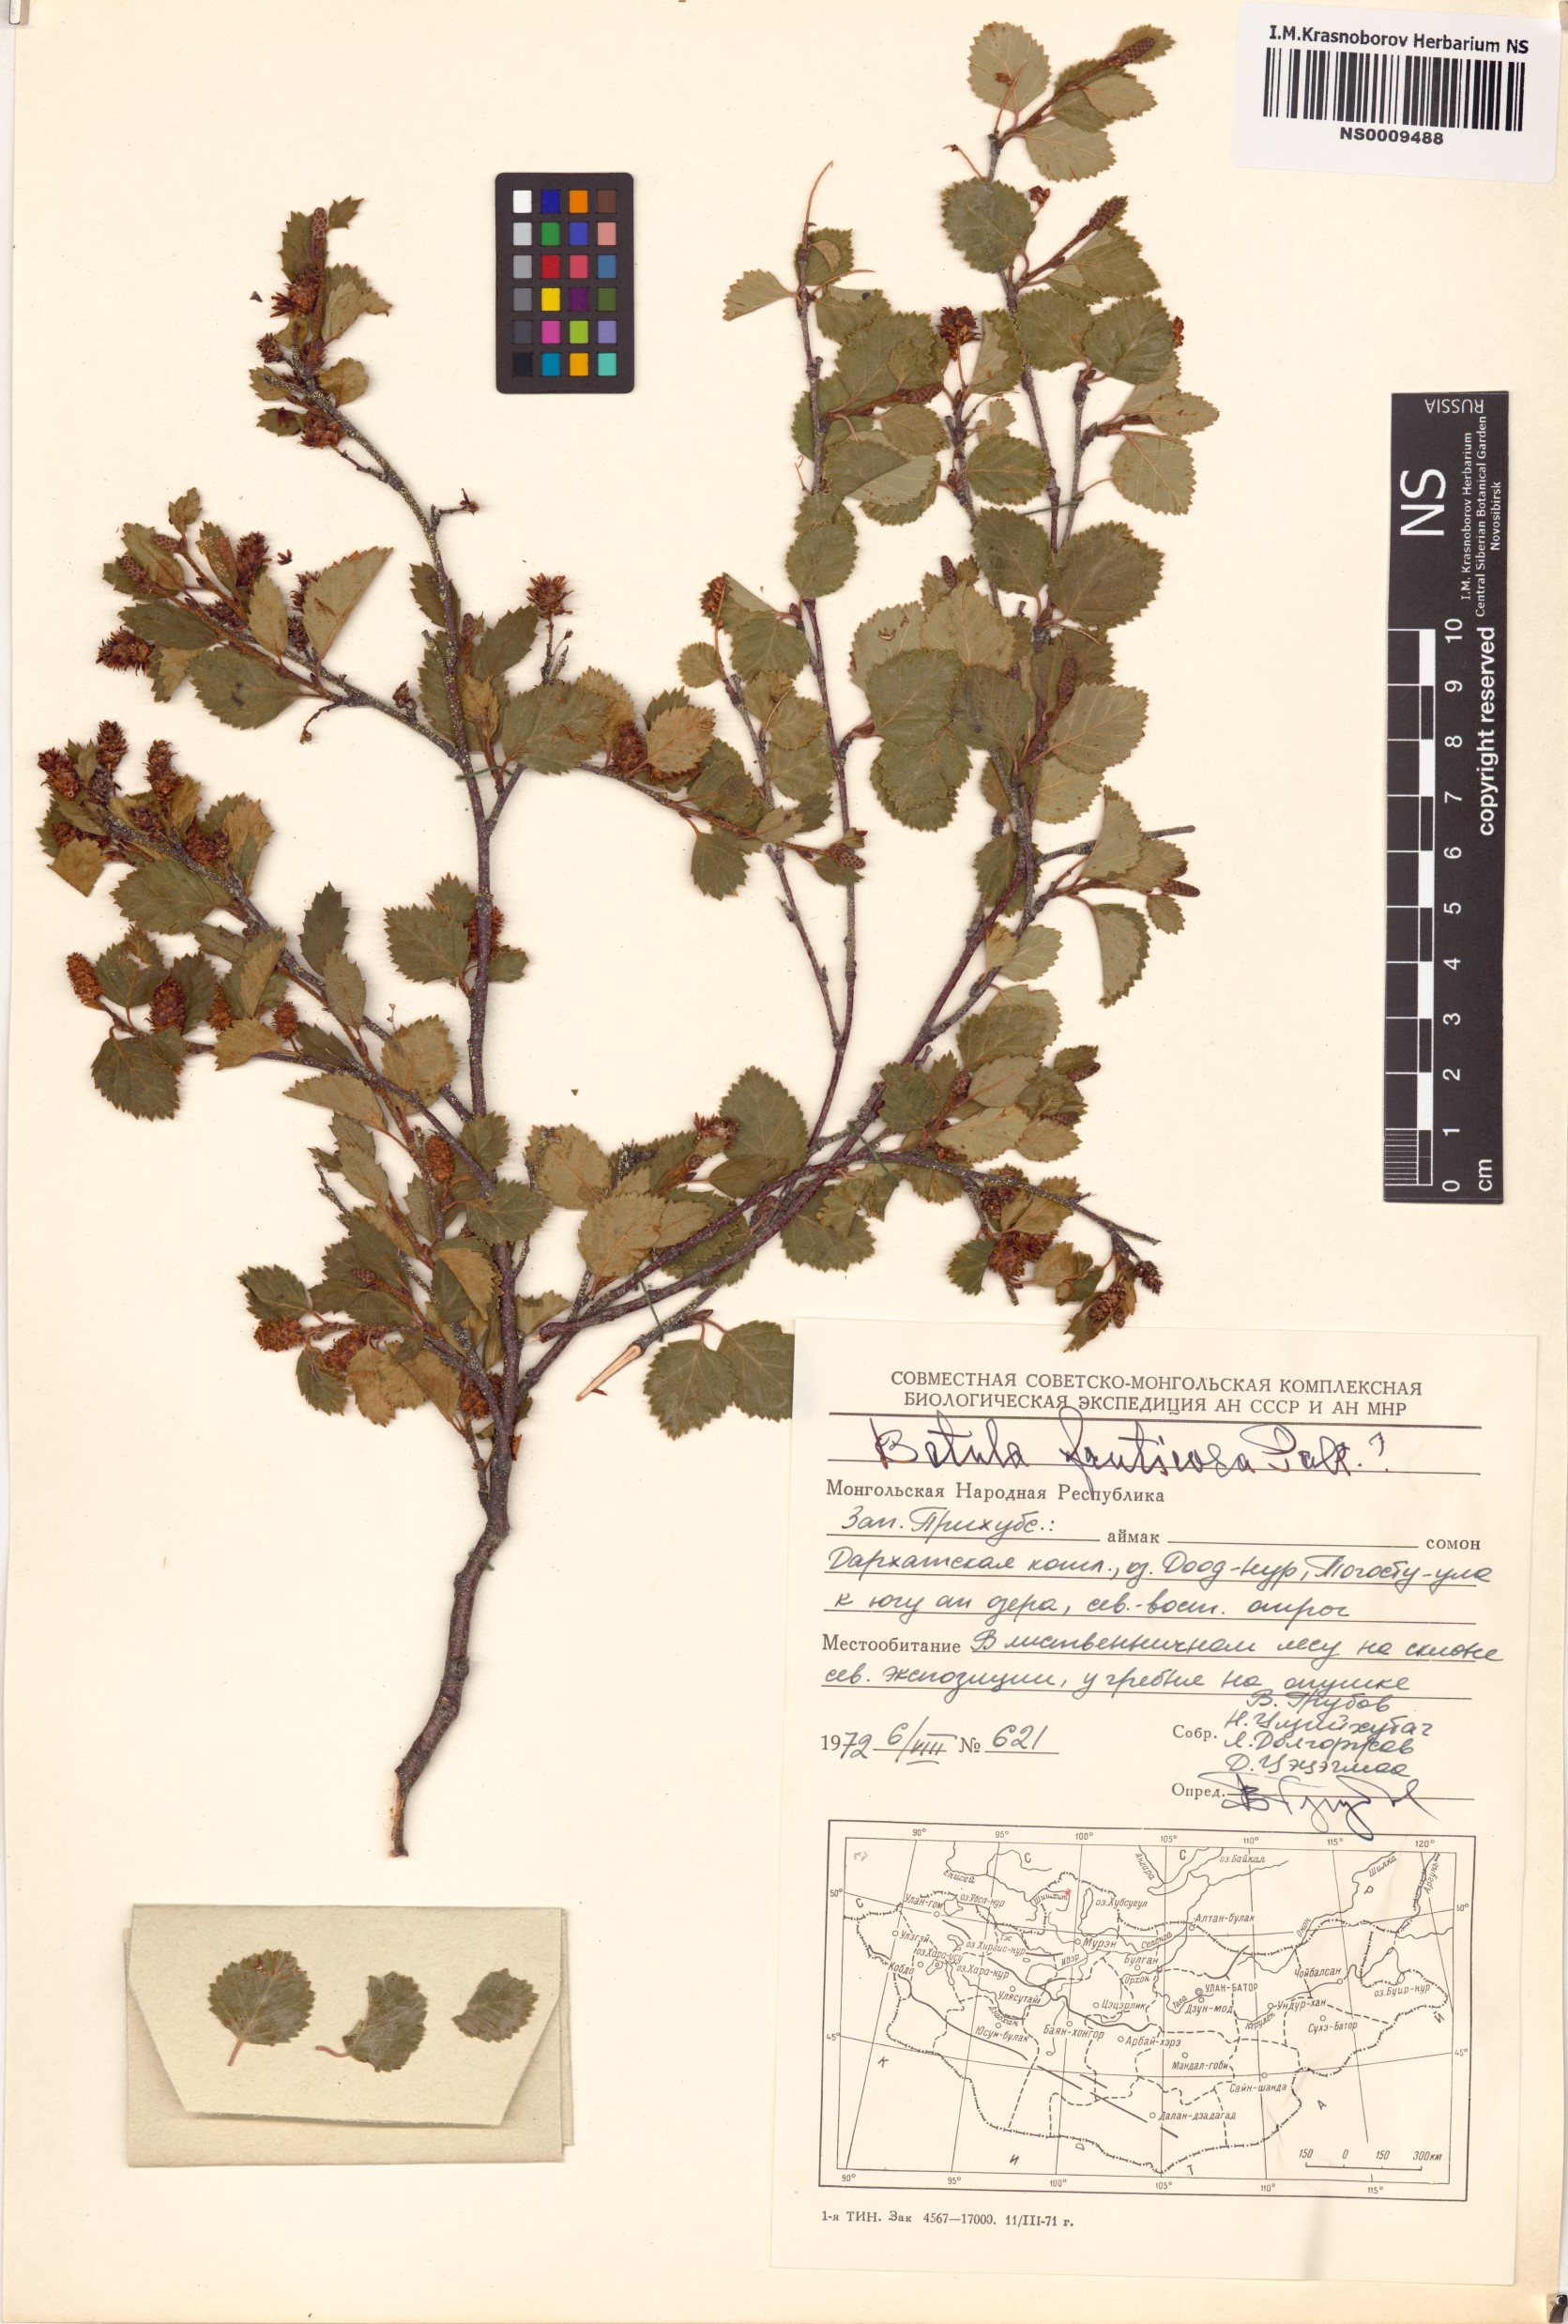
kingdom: Plantae
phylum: Tracheophyta
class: Magnoliopsida
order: Fagales
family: Betulaceae
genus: Betula
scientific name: Betula fruticosa
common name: Japanese bog birch
